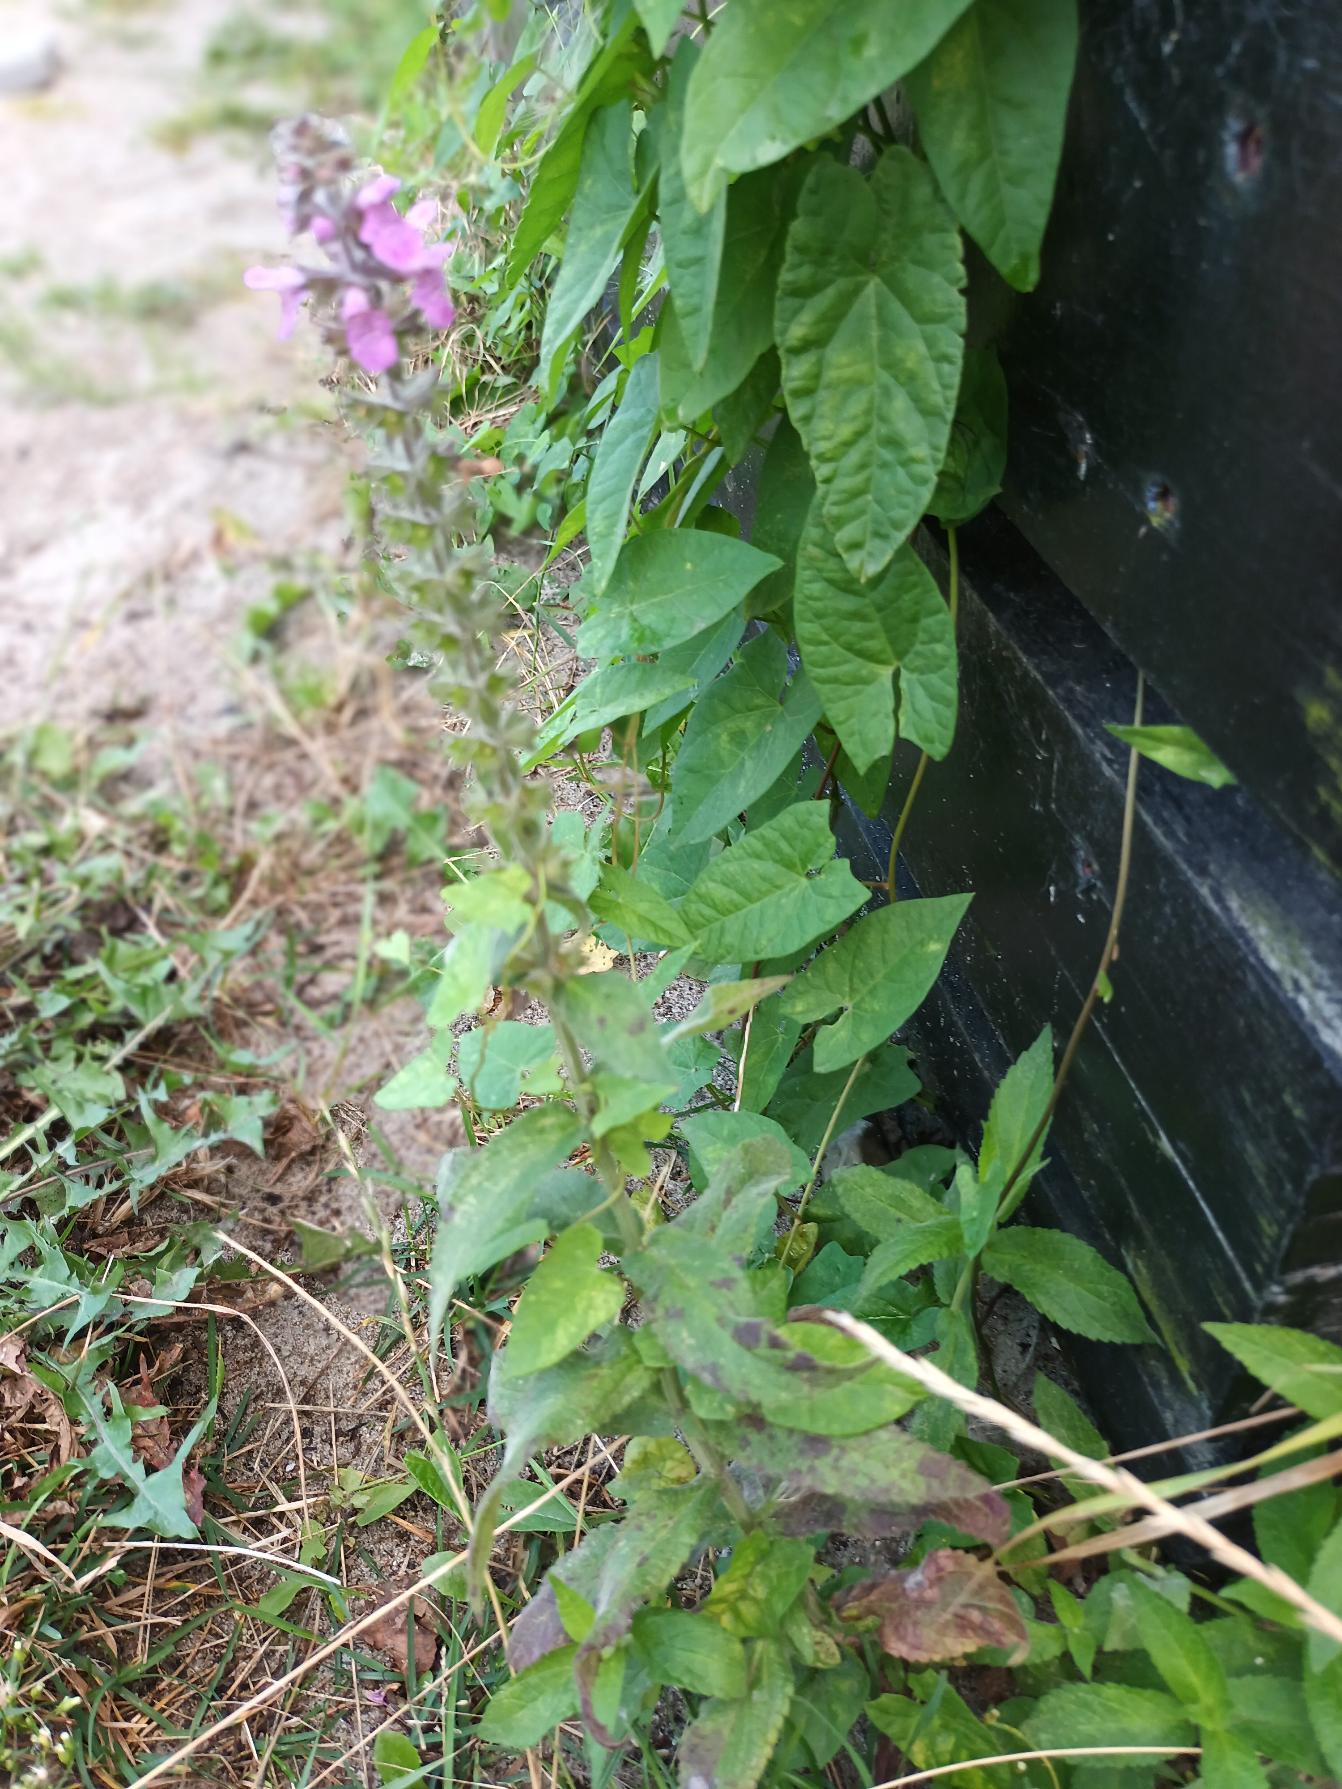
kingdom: Plantae
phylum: Tracheophyta
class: Magnoliopsida
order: Lamiales
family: Lamiaceae
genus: Stachys
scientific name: Stachys palustris
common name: Kær-galtetand
